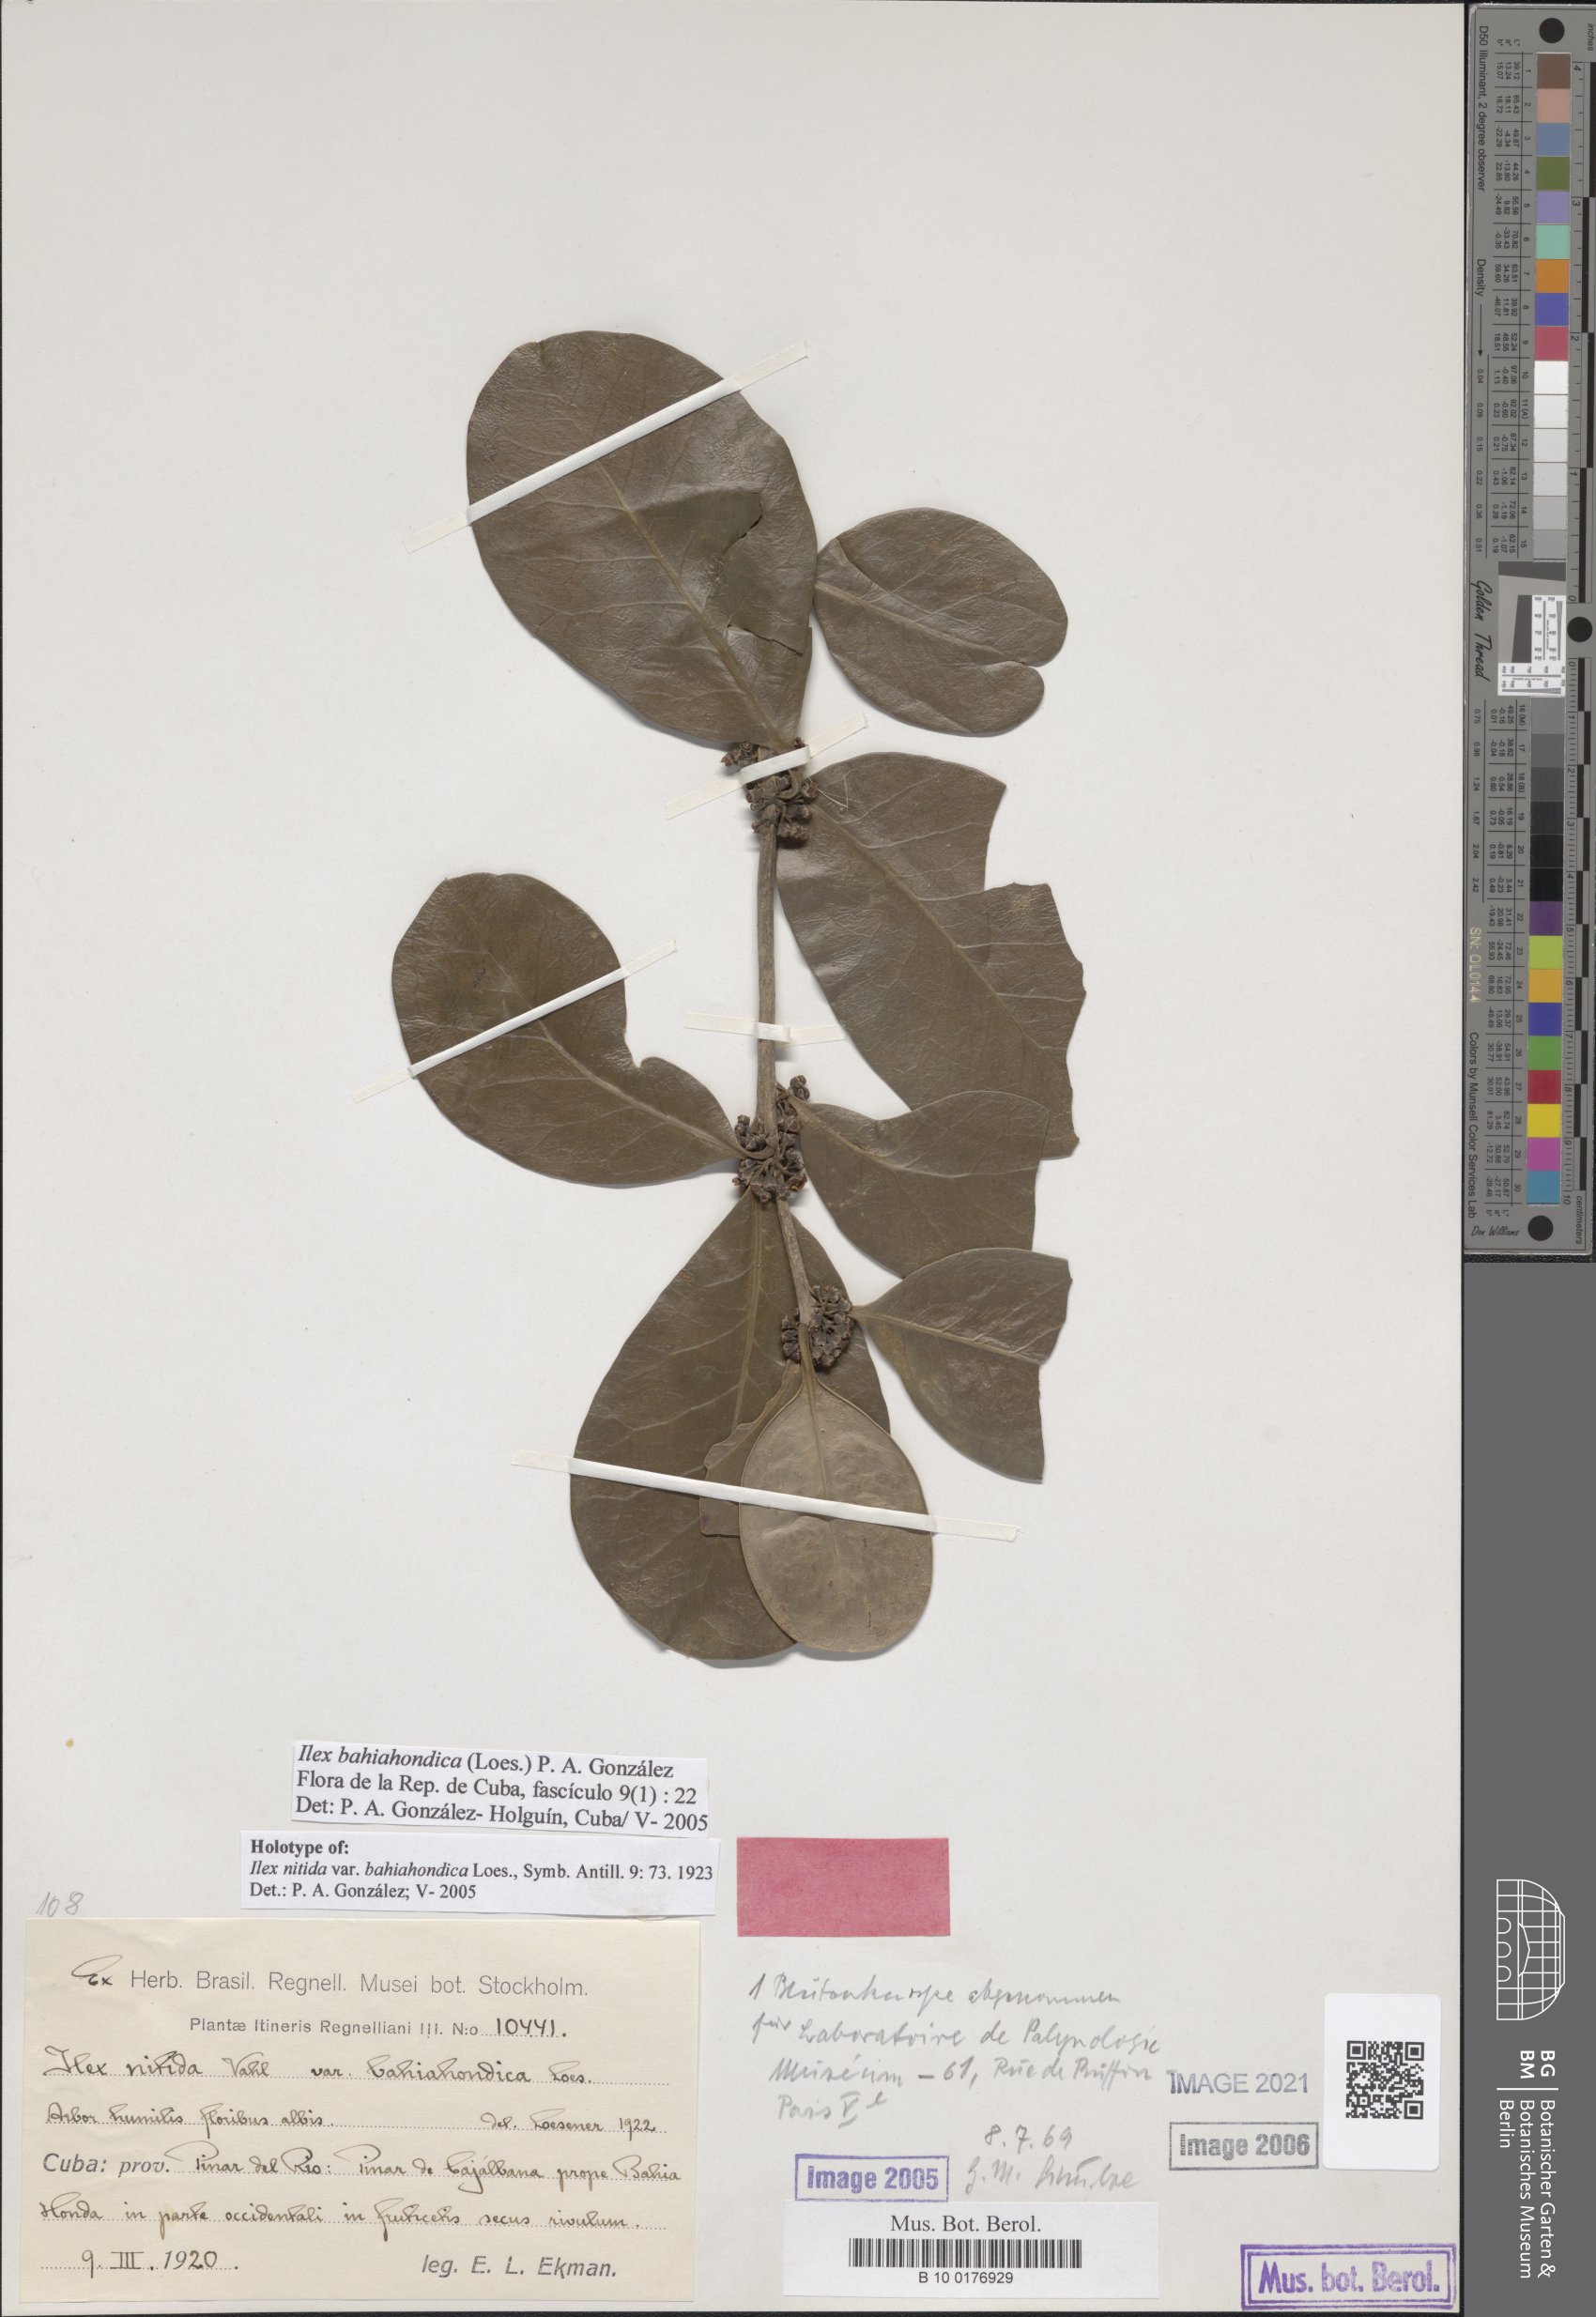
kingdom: Plantae
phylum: Tracheophyta
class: Magnoliopsida
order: Aquifoliales
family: Aquifoliaceae
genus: Ilex
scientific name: Ilex bahiahondica
